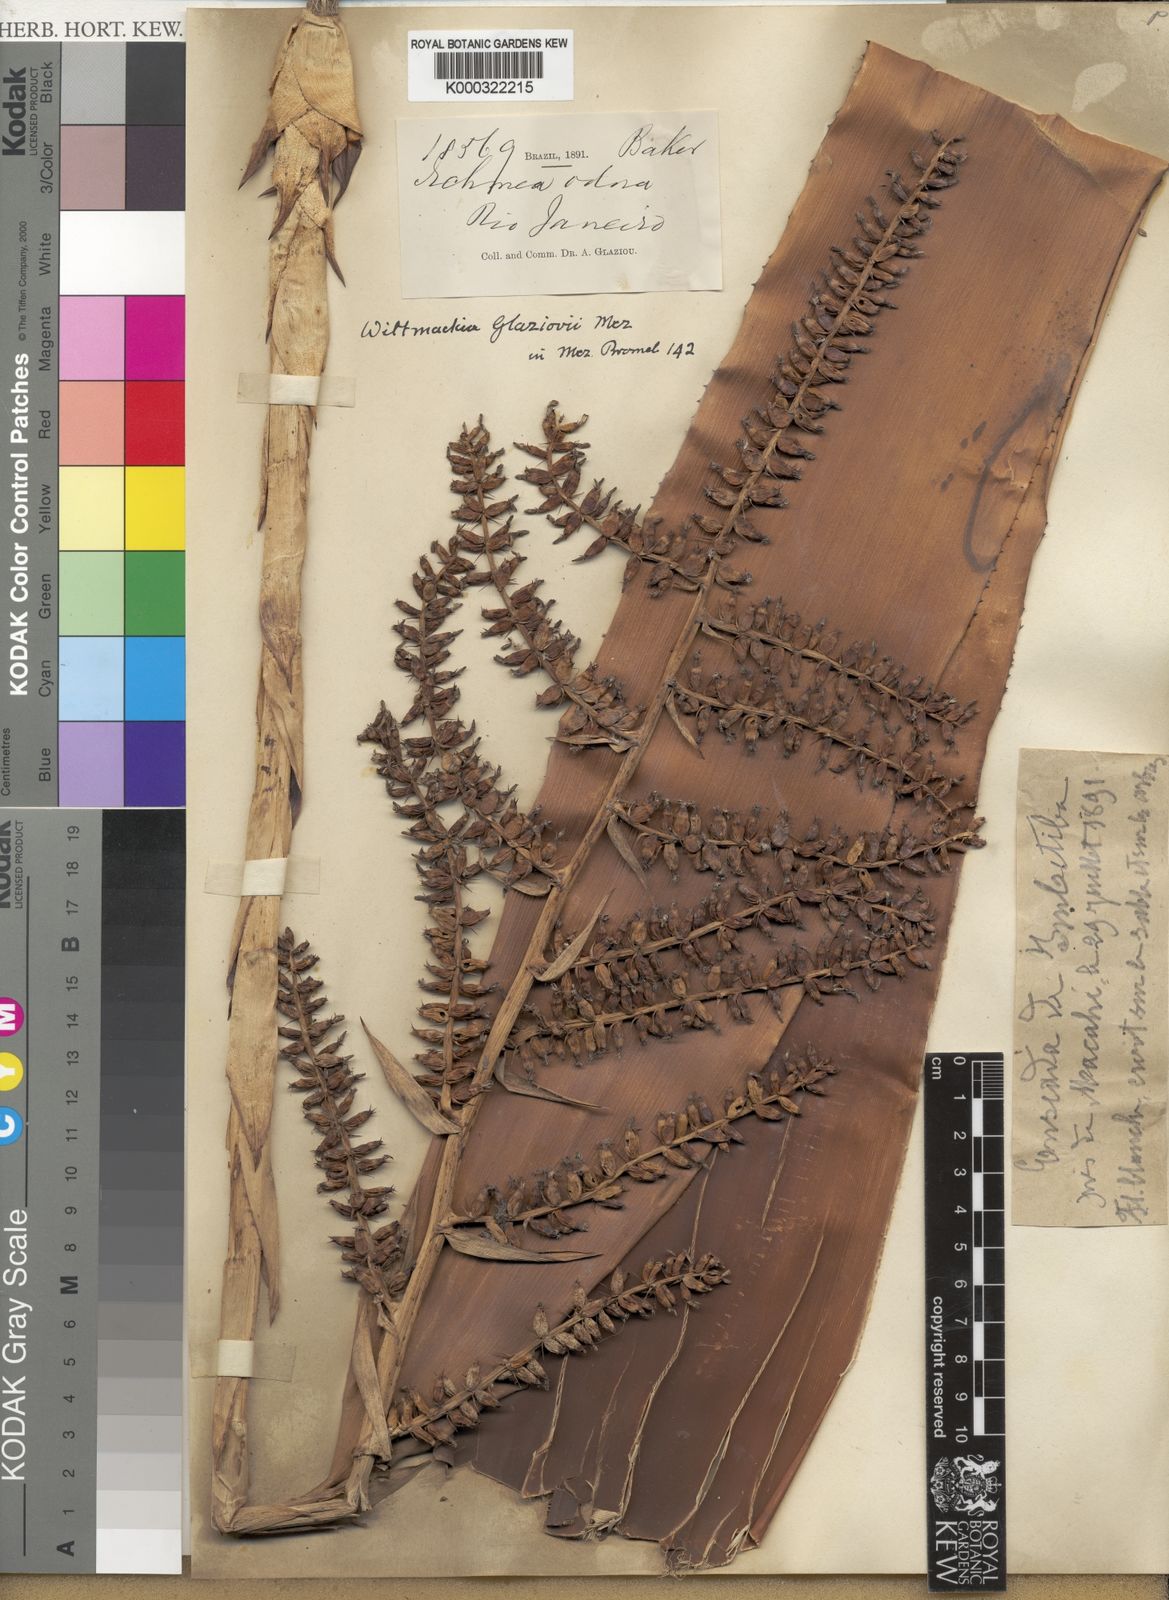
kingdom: Plantae
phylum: Tracheophyta
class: Liliopsida
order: Poales
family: Bromeliaceae
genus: Wittmackia
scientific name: Wittmackia lingulata
